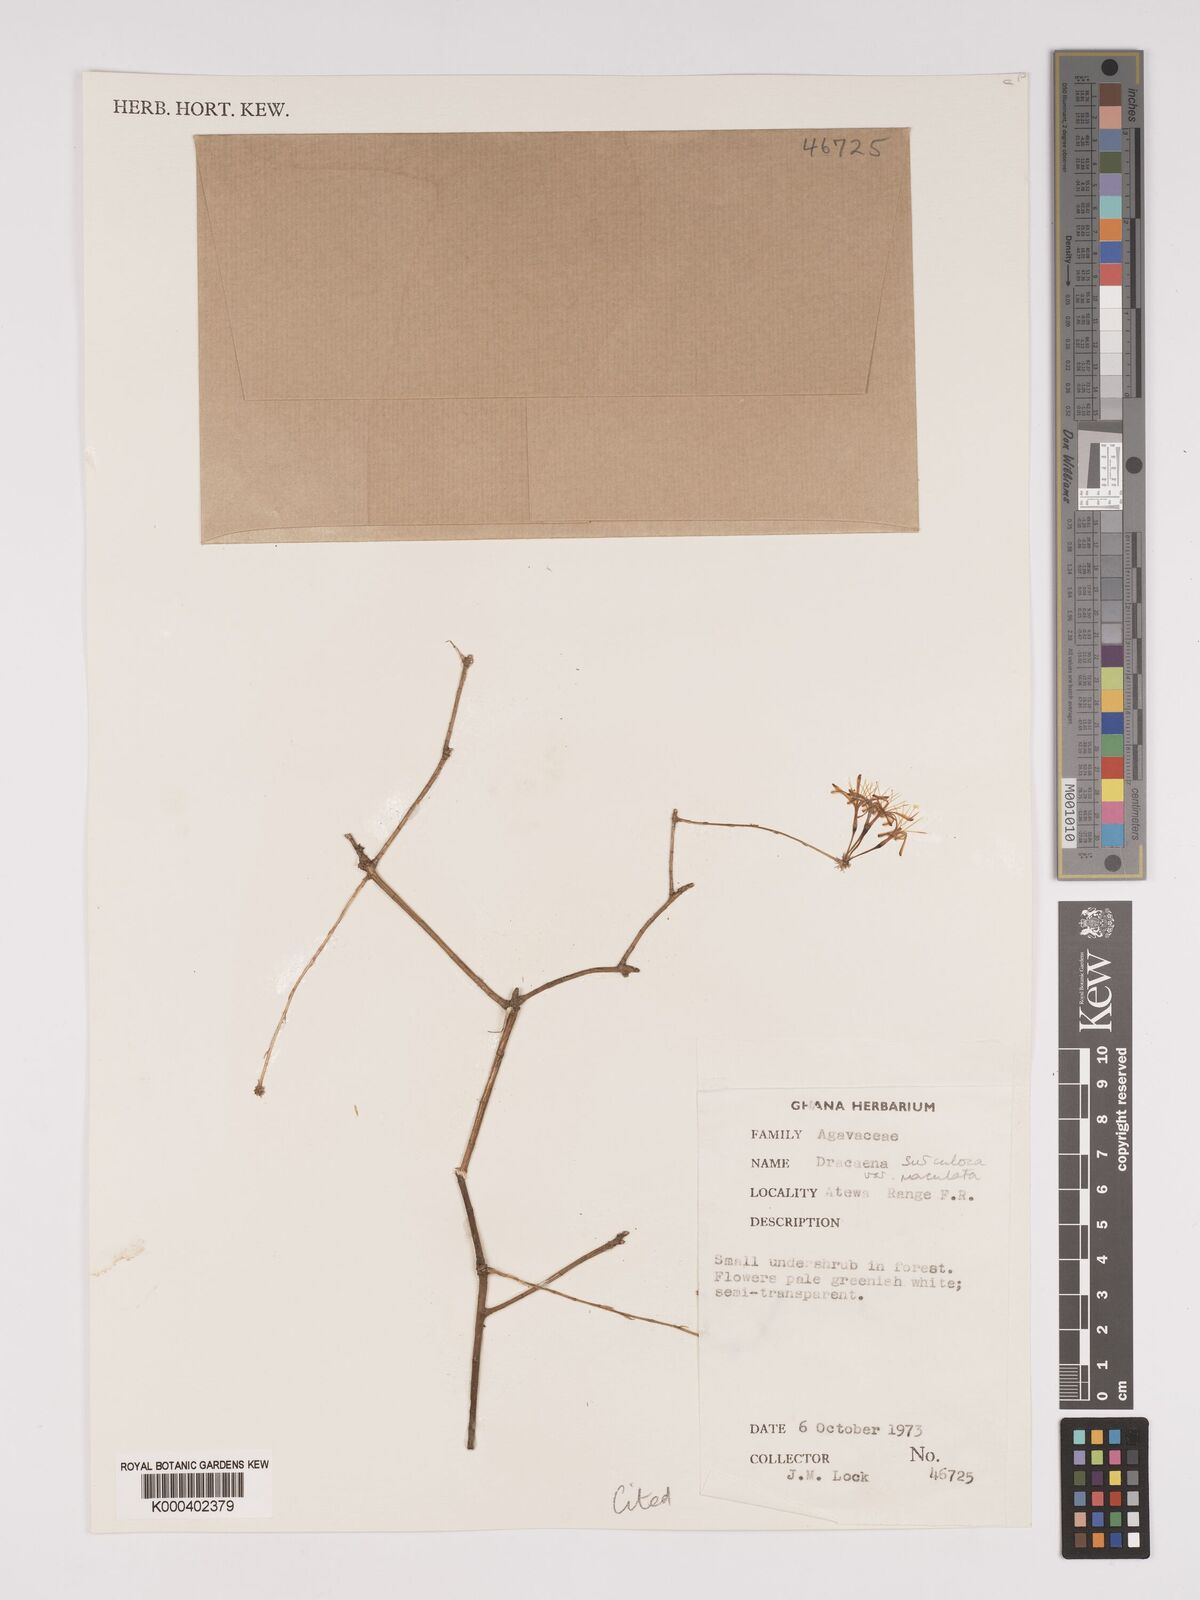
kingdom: Plantae
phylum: Tracheophyta
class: Liliopsida
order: Asparagales
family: Asparagaceae
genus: Dracaena
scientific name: Dracaena surculosa
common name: Spotted dracaena
